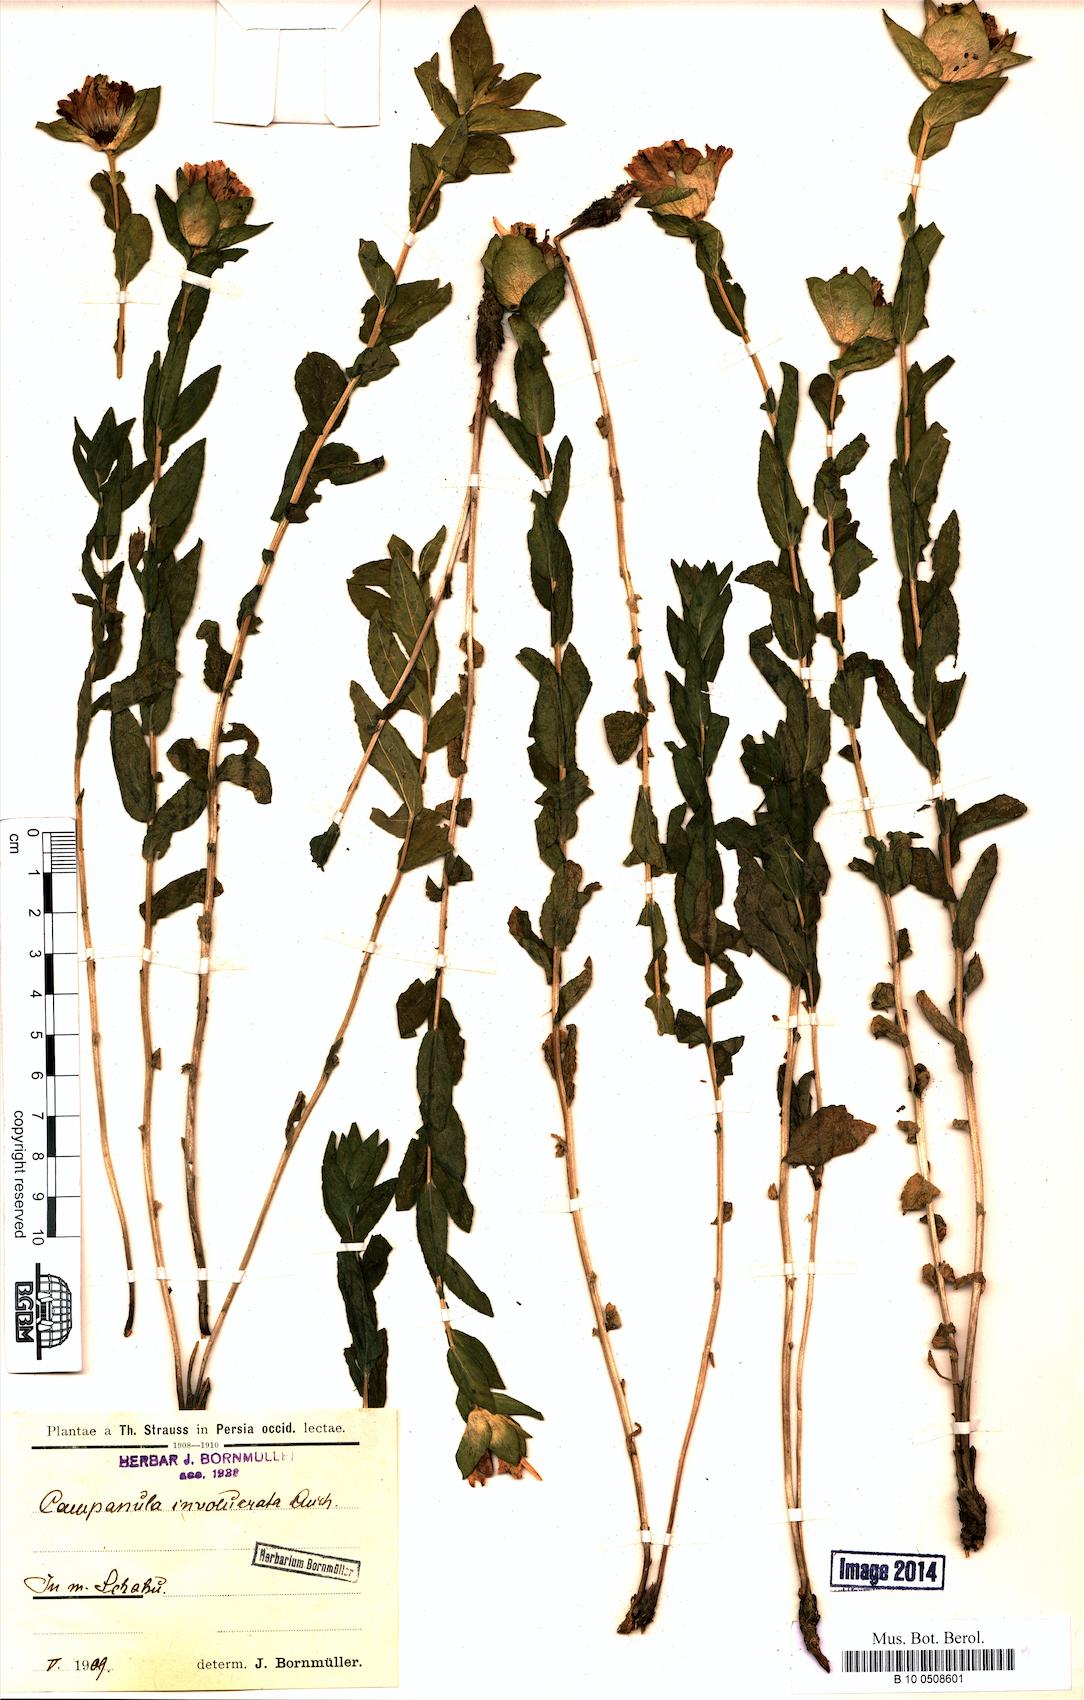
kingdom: Plantae
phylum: Tracheophyta
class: Magnoliopsida
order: Asterales
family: Campanulaceae
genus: Campanula
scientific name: Campanula involucrata
